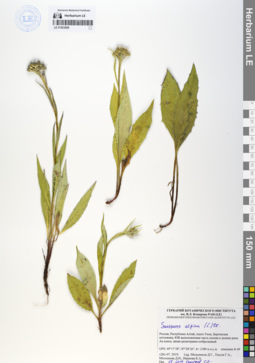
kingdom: Plantae
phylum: Tracheophyta
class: Magnoliopsida
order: Asterales
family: Asteraceae
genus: Saussurea
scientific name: Saussurea alpina
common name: Alpine saw-wort
